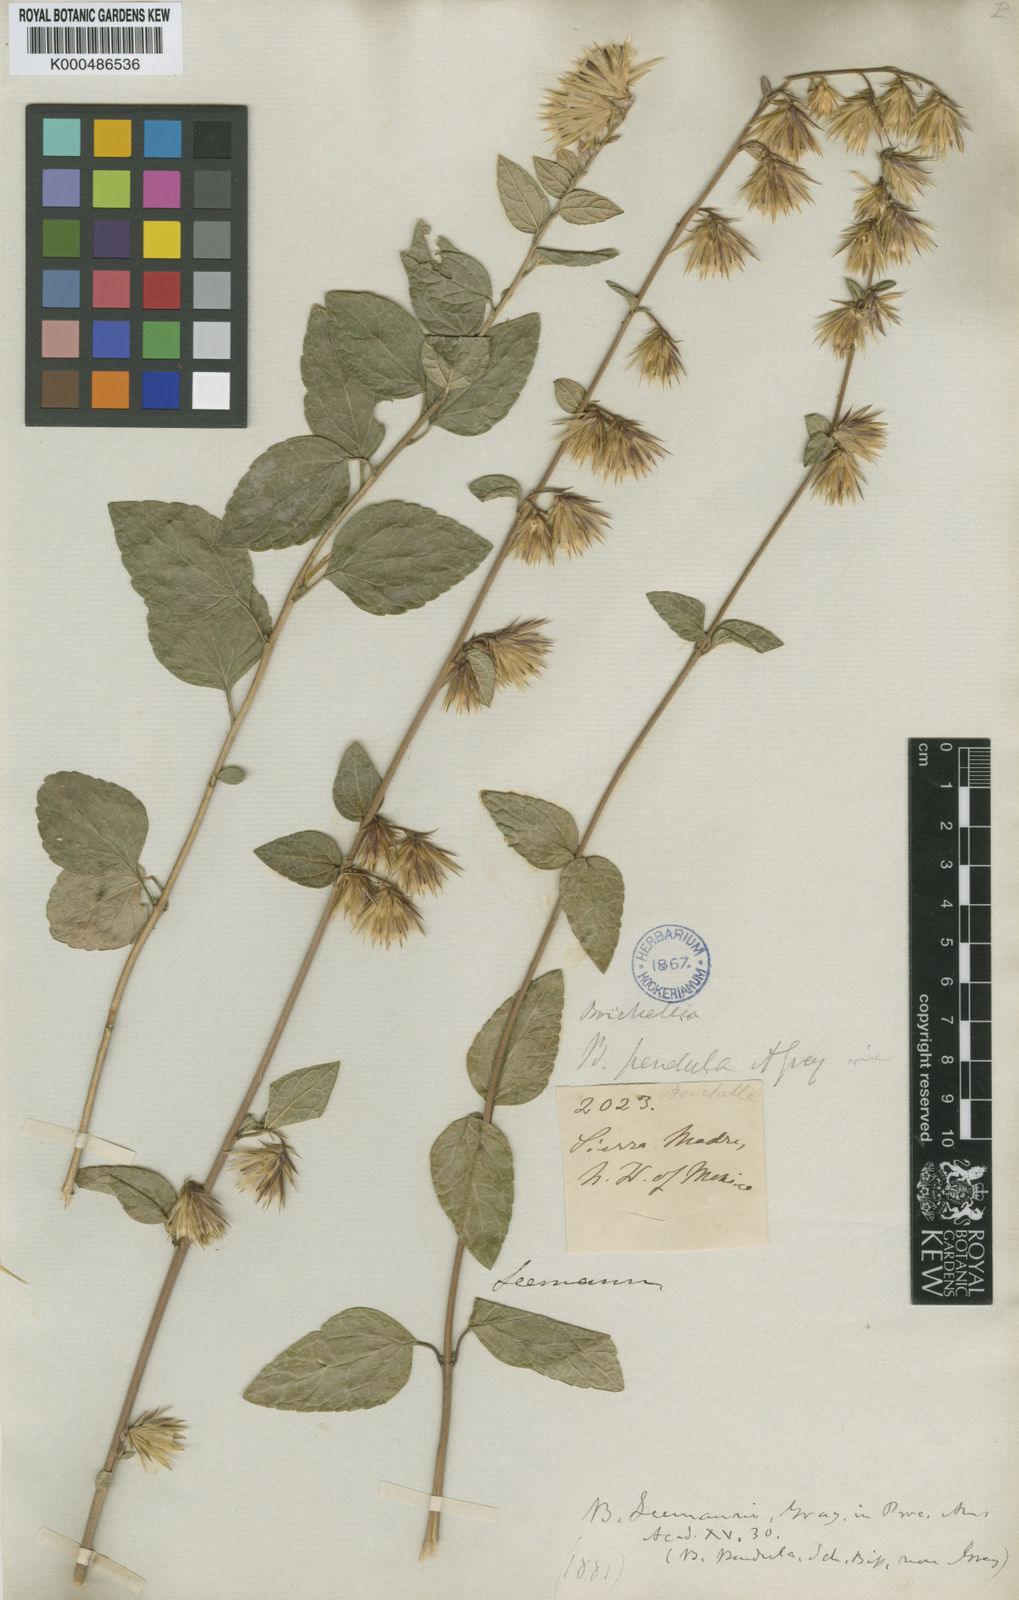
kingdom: Plantae
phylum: Tracheophyta
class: Magnoliopsida
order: Asterales
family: Asteraceae
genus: Brickellia
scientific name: Brickellia seemannii
